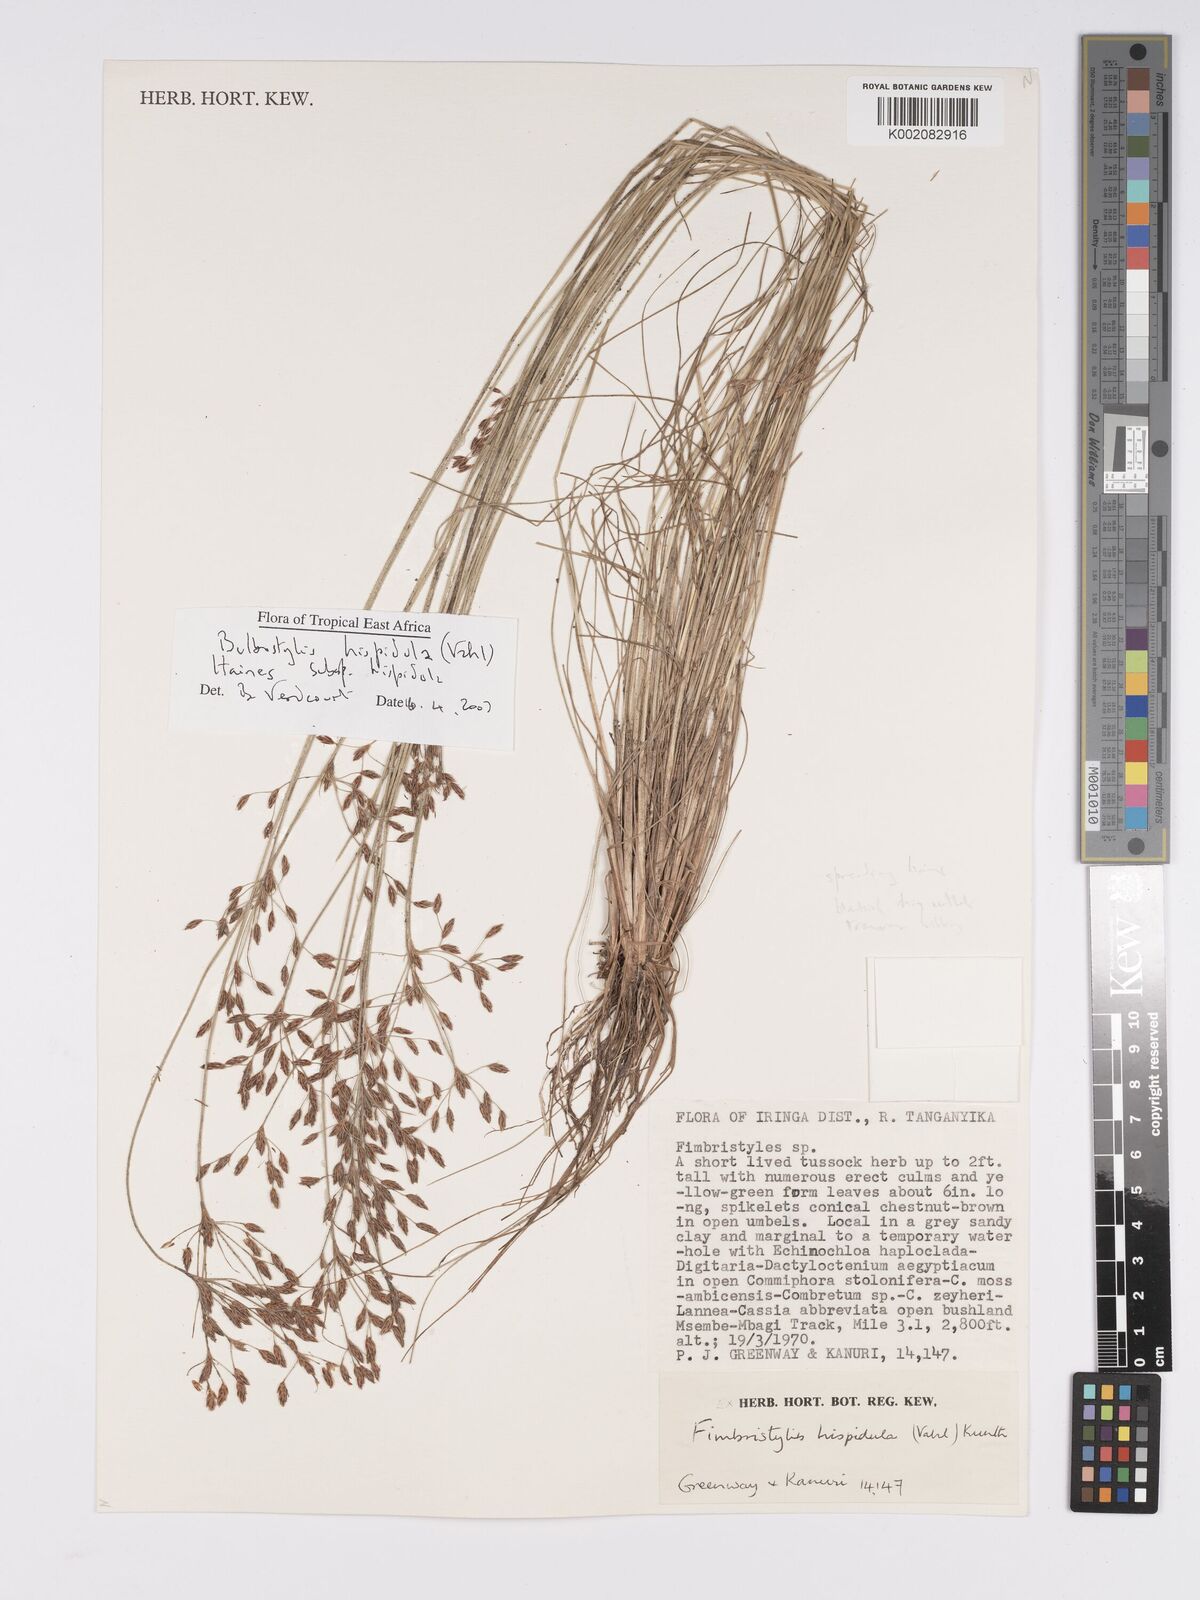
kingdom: Plantae
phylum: Tracheophyta
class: Liliopsida
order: Poales
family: Cyperaceae
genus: Bulbostylis
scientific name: Bulbostylis hispidula
